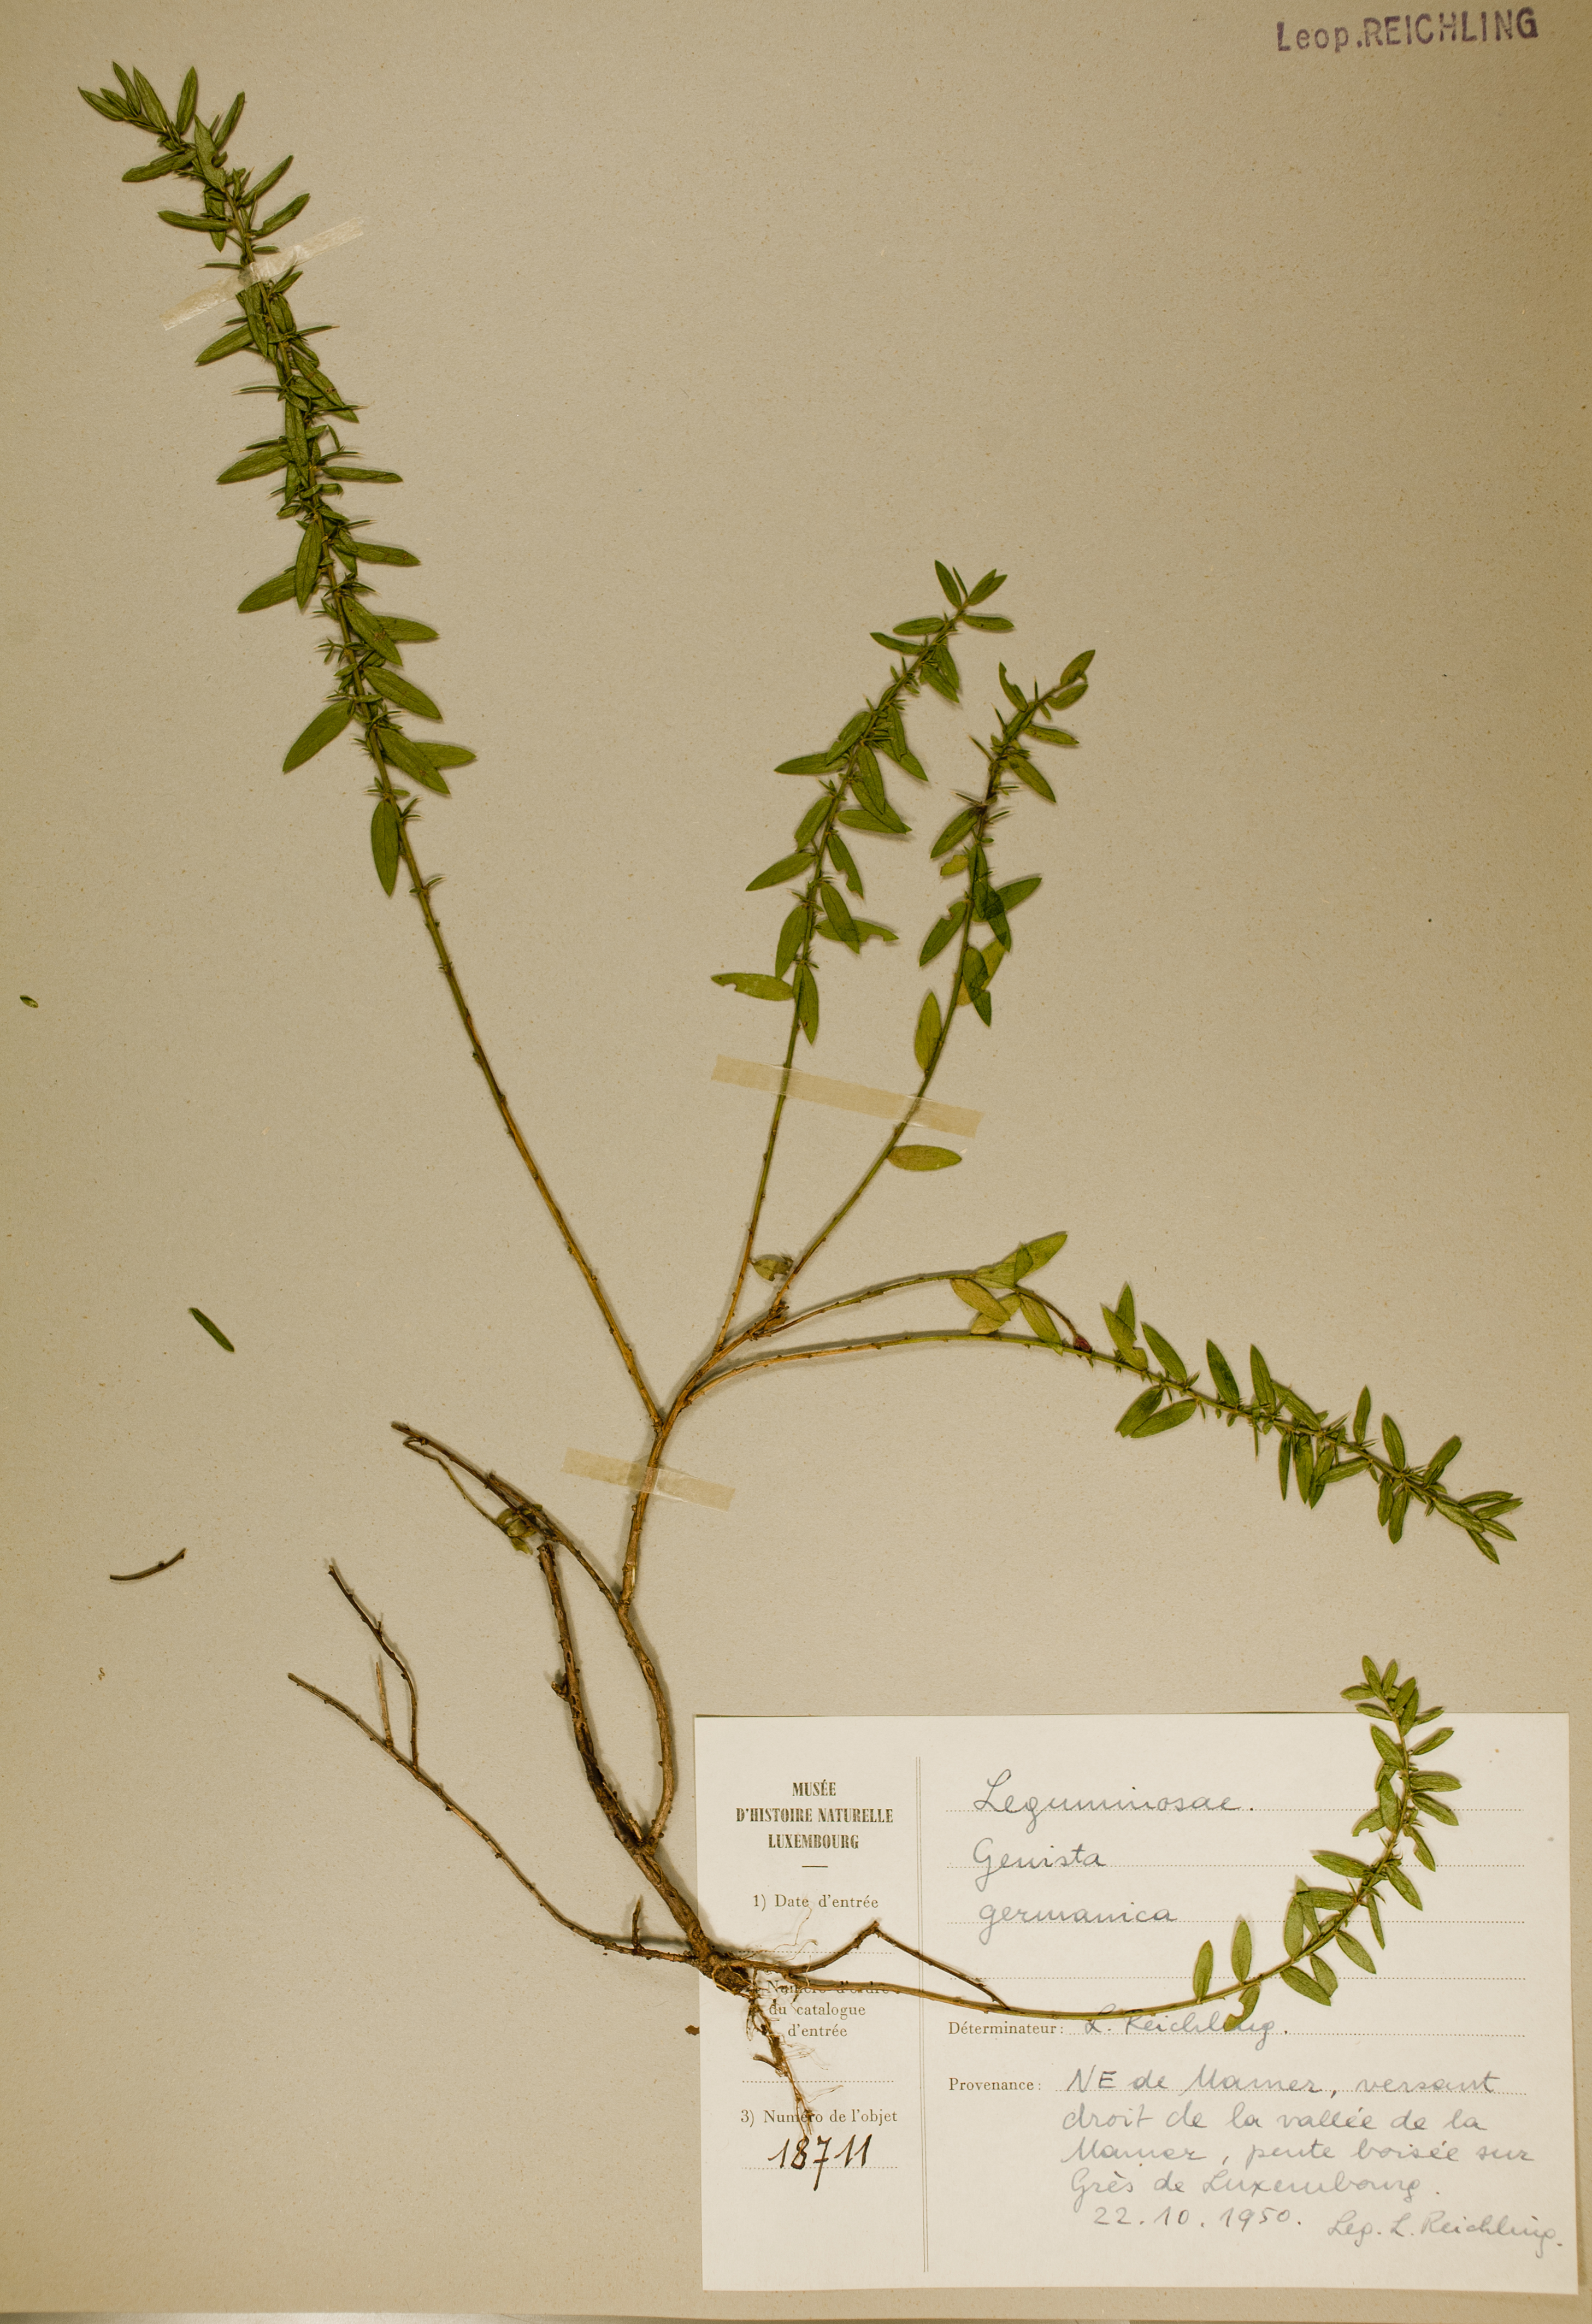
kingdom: Plantae
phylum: Tracheophyta
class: Magnoliopsida
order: Fabales
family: Fabaceae
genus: Genista
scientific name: Genista germanica
